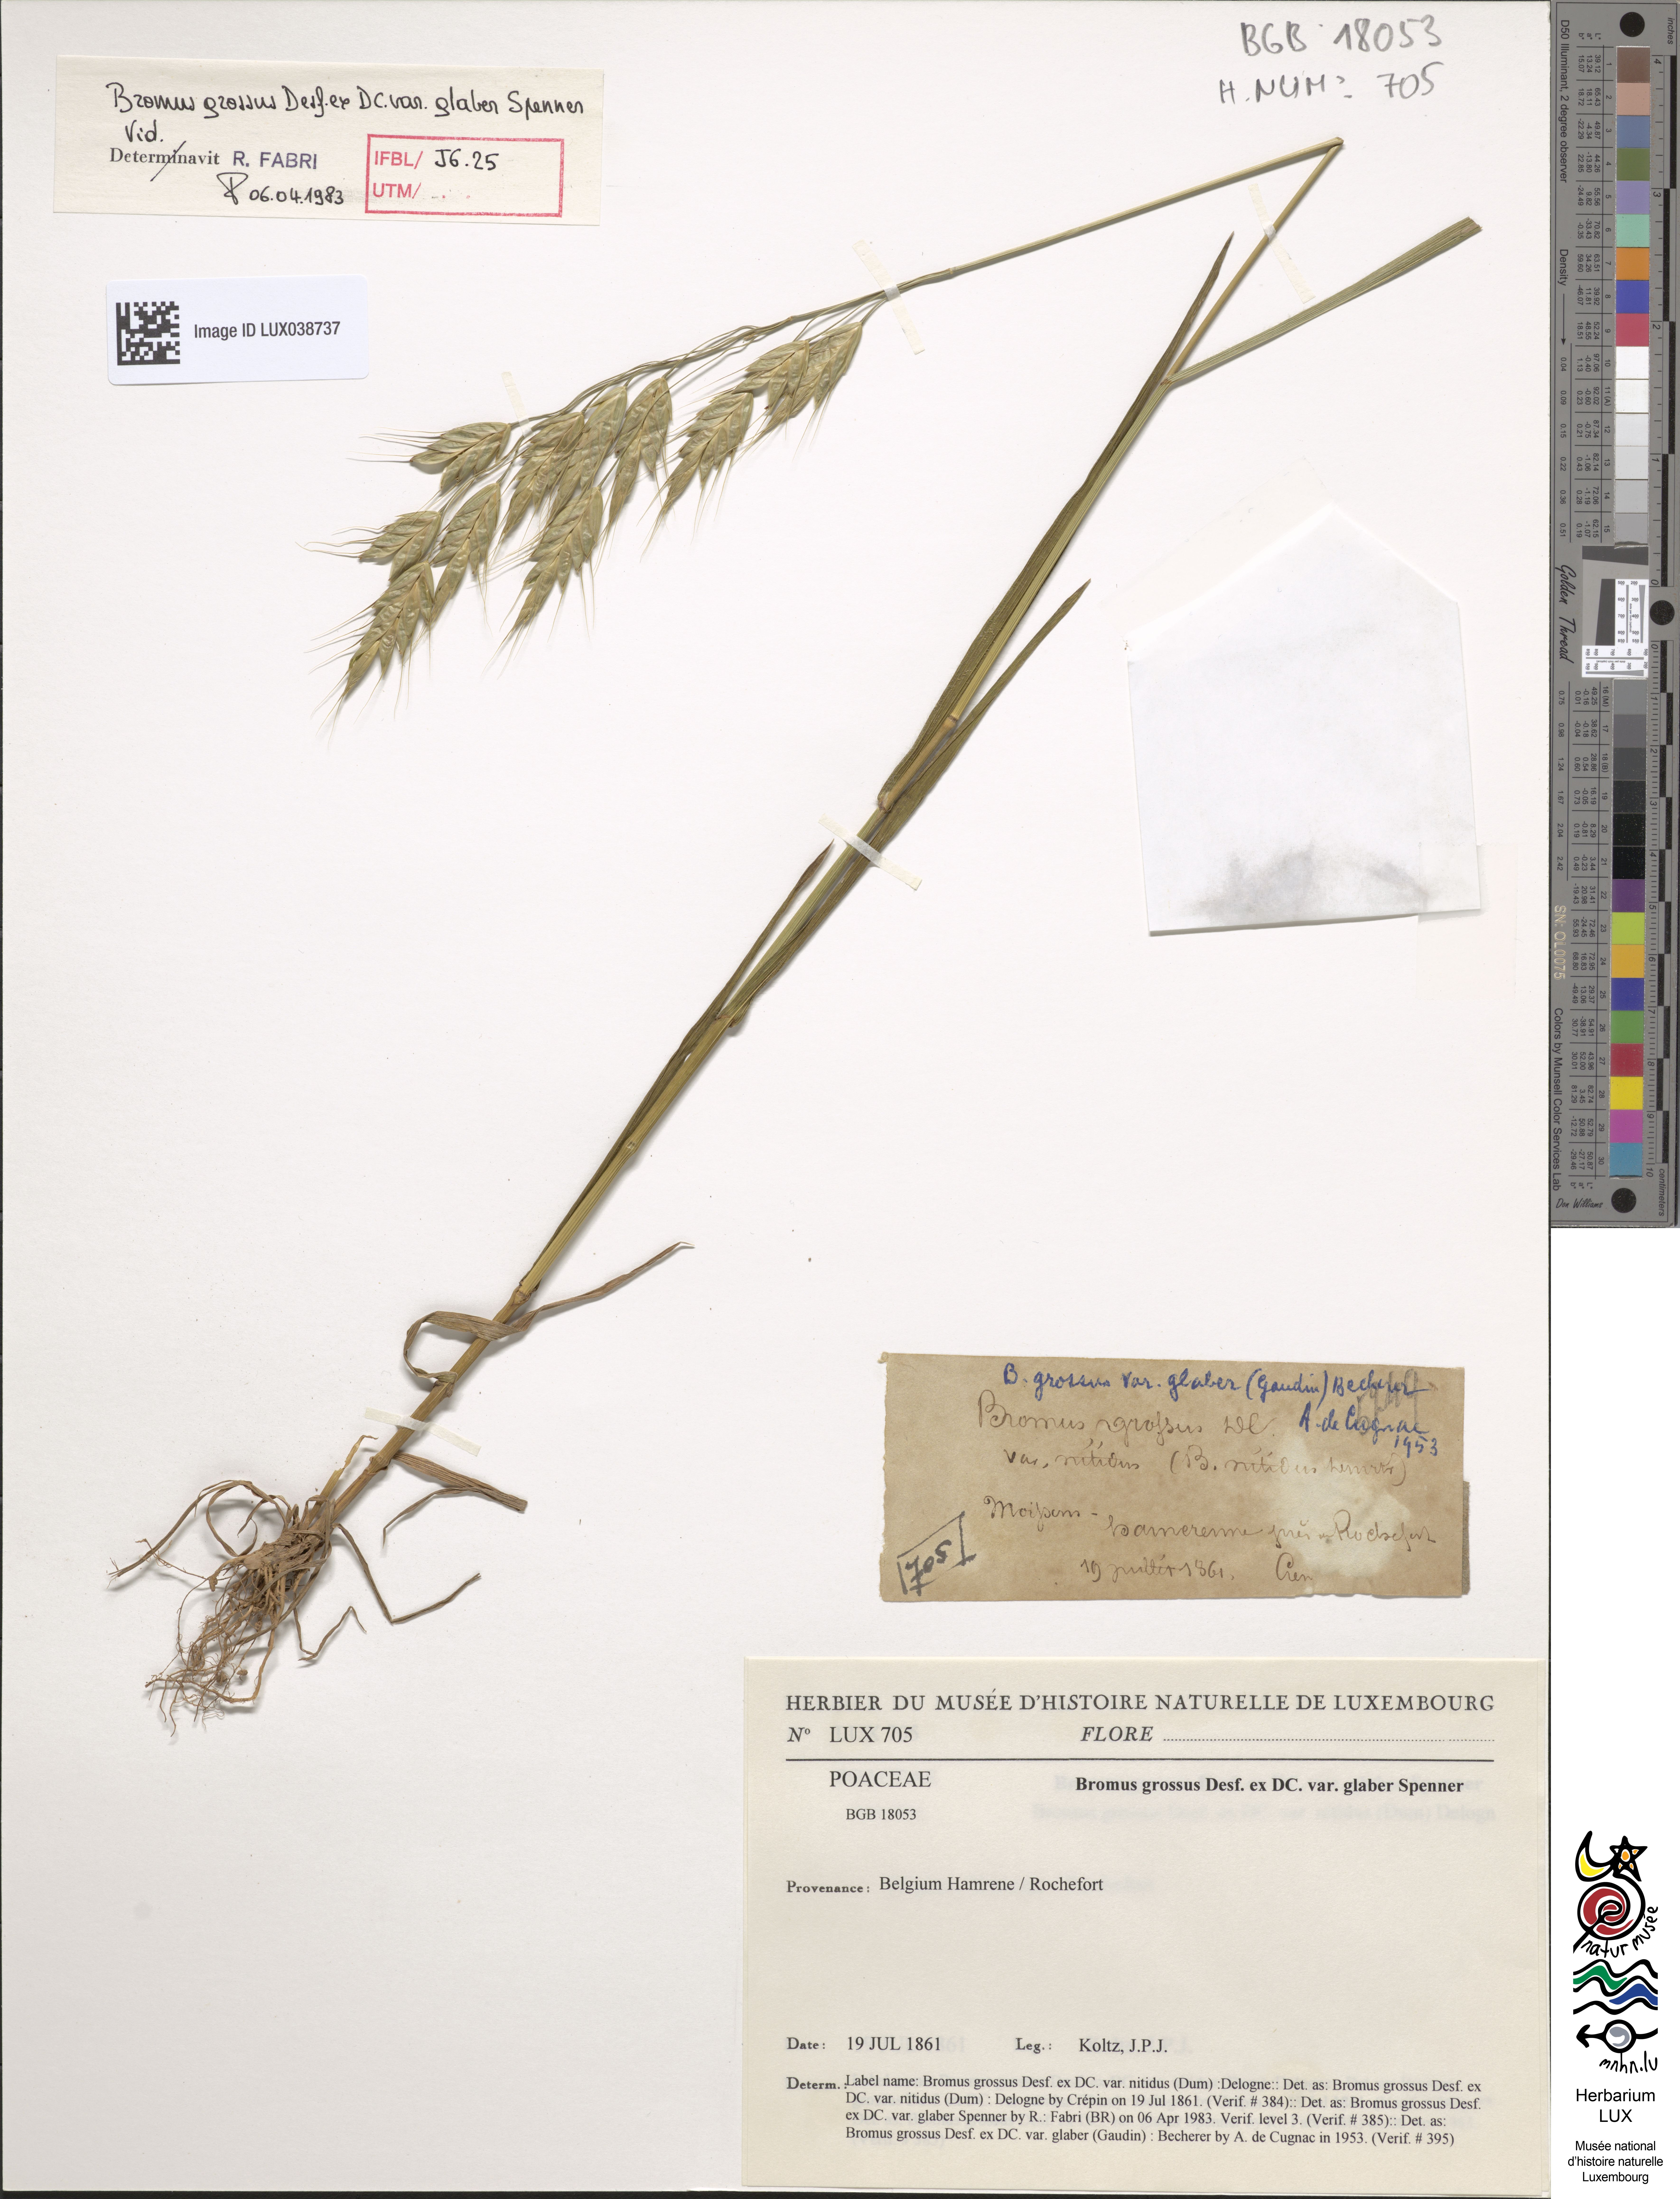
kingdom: Plantae
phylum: Tracheophyta
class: Liliopsida
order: Poales
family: Poaceae
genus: Bromus
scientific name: Bromus grossus
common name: Whiskered brome
